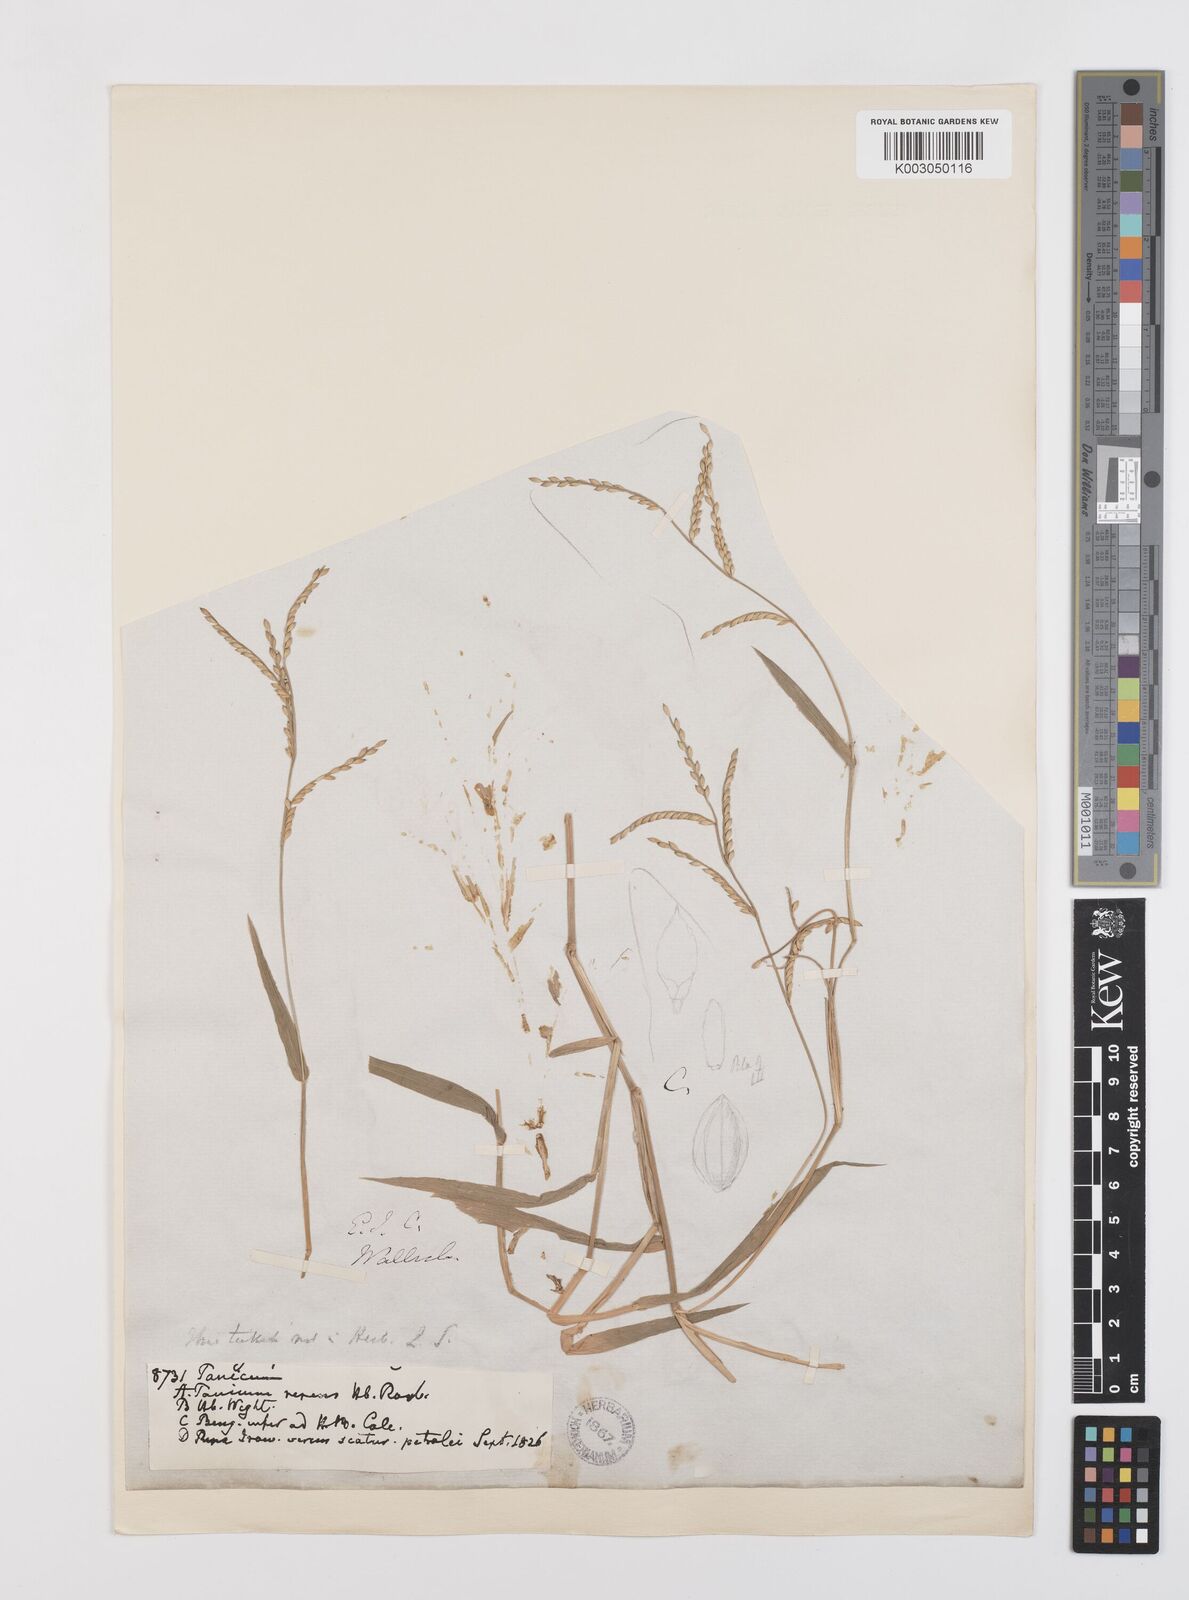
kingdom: Plantae
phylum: Tracheophyta
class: Liliopsida
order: Poales
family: Poaceae
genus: Urochloa
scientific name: Urochloa subquadripara
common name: Armgrass millet
